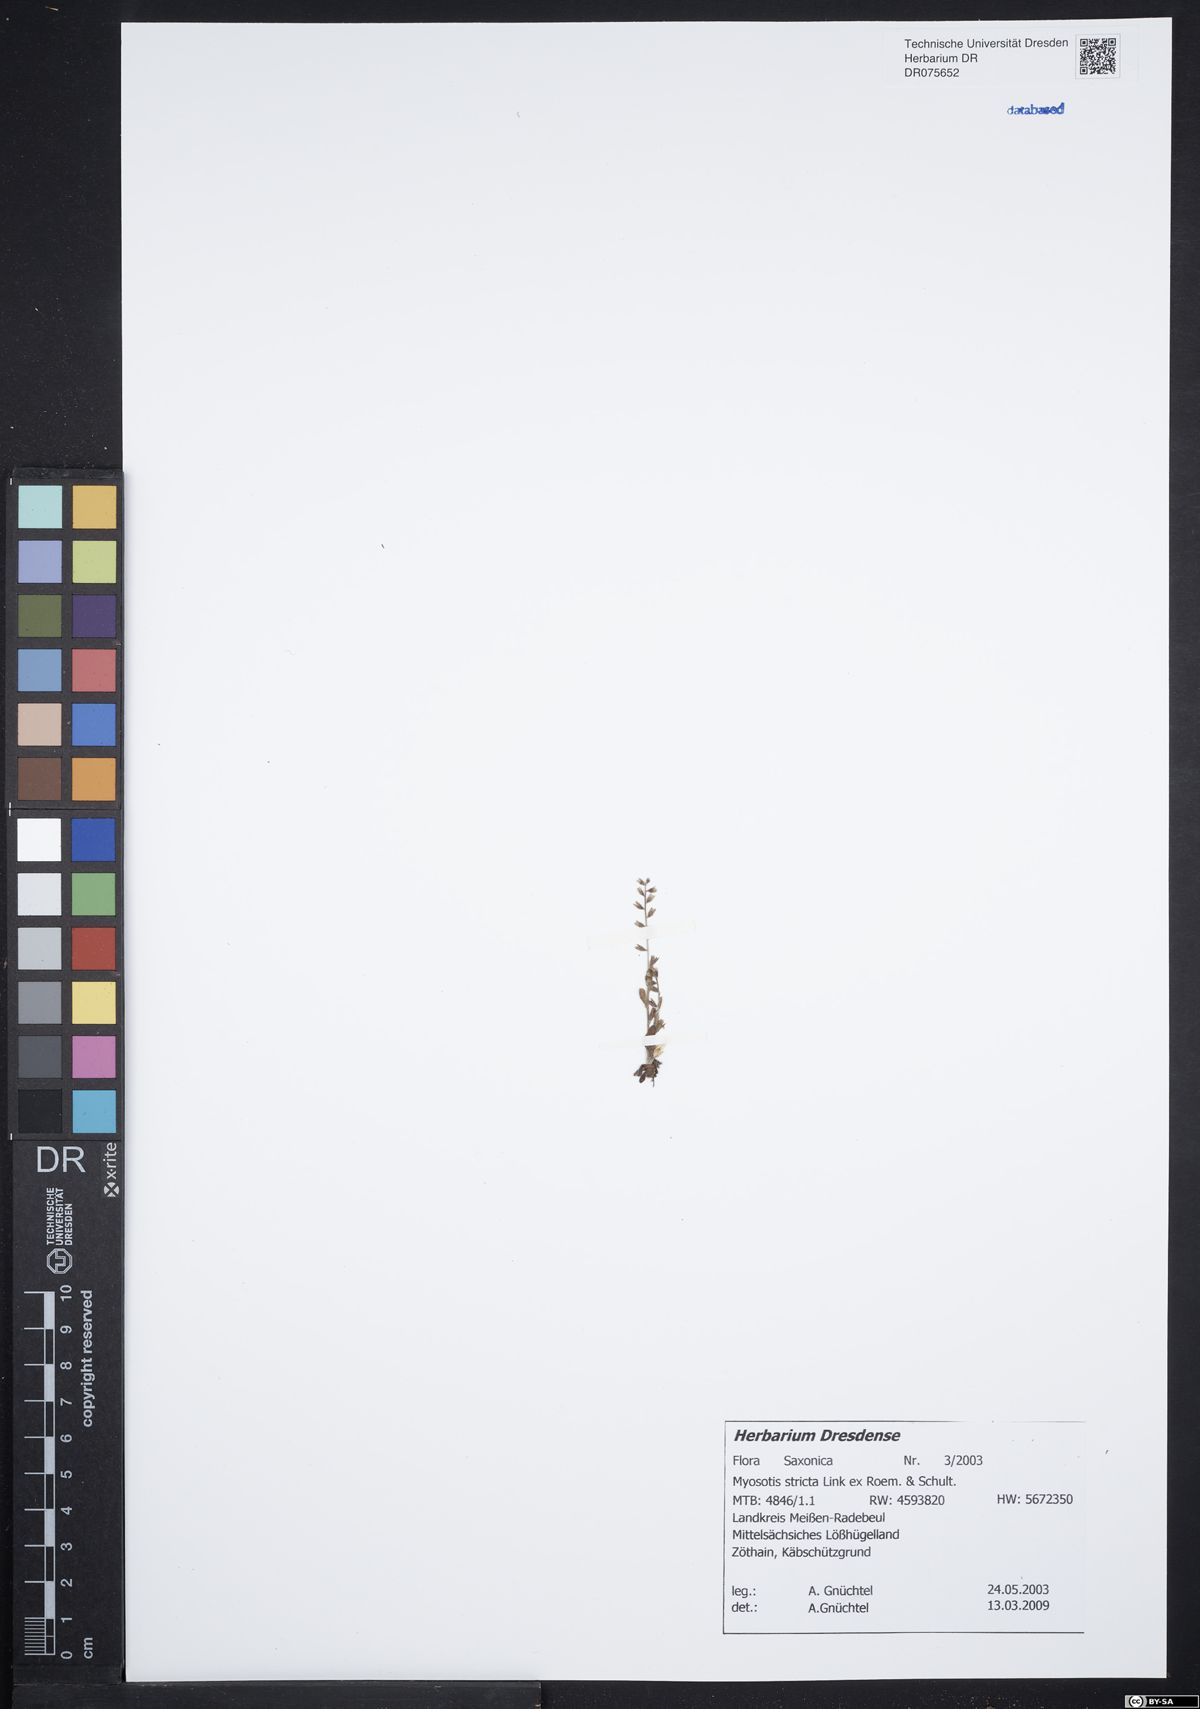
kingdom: Plantae
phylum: Tracheophyta
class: Magnoliopsida
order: Boraginales
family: Boraginaceae
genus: Myosotis
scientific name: Myosotis stricta
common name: Strict forget-me-not
